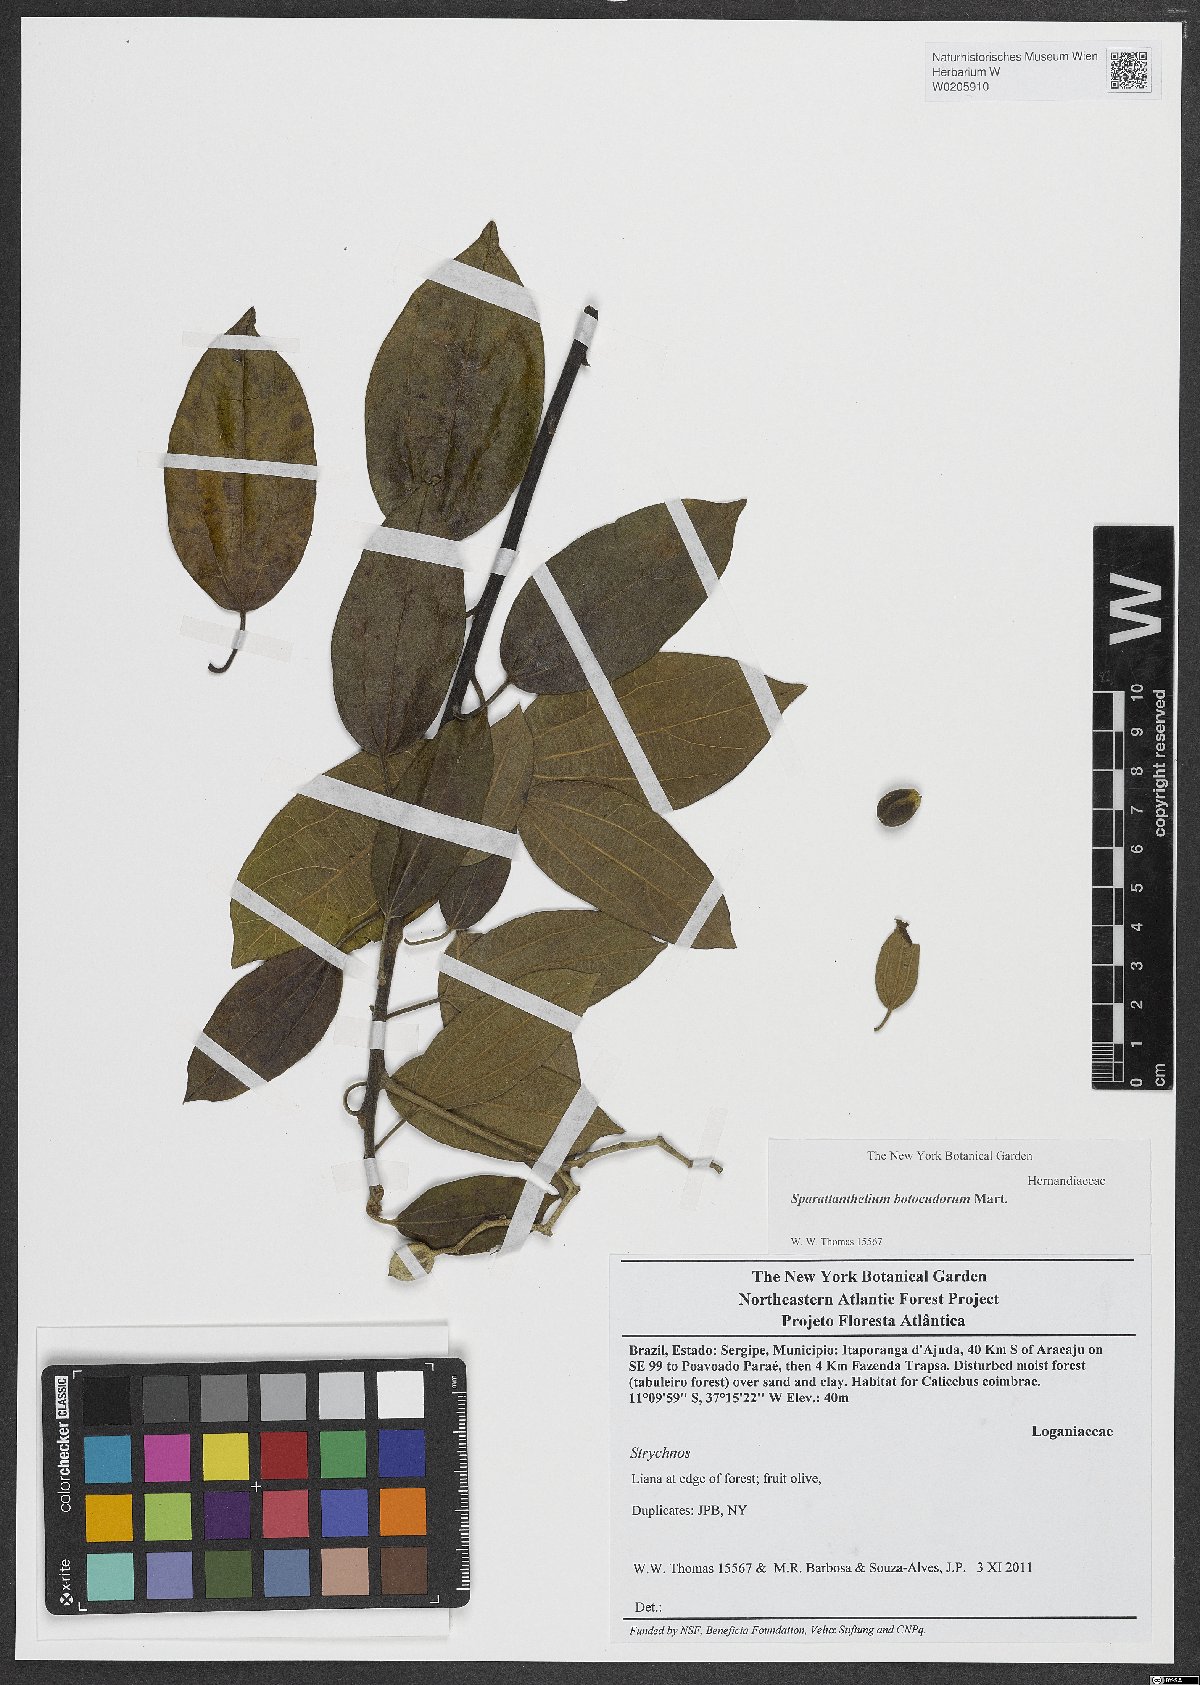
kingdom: Plantae
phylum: Tracheophyta
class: Magnoliopsida
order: Laurales
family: Hernandiaceae
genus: Sparattanthelium
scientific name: Sparattanthelium botocudorum
